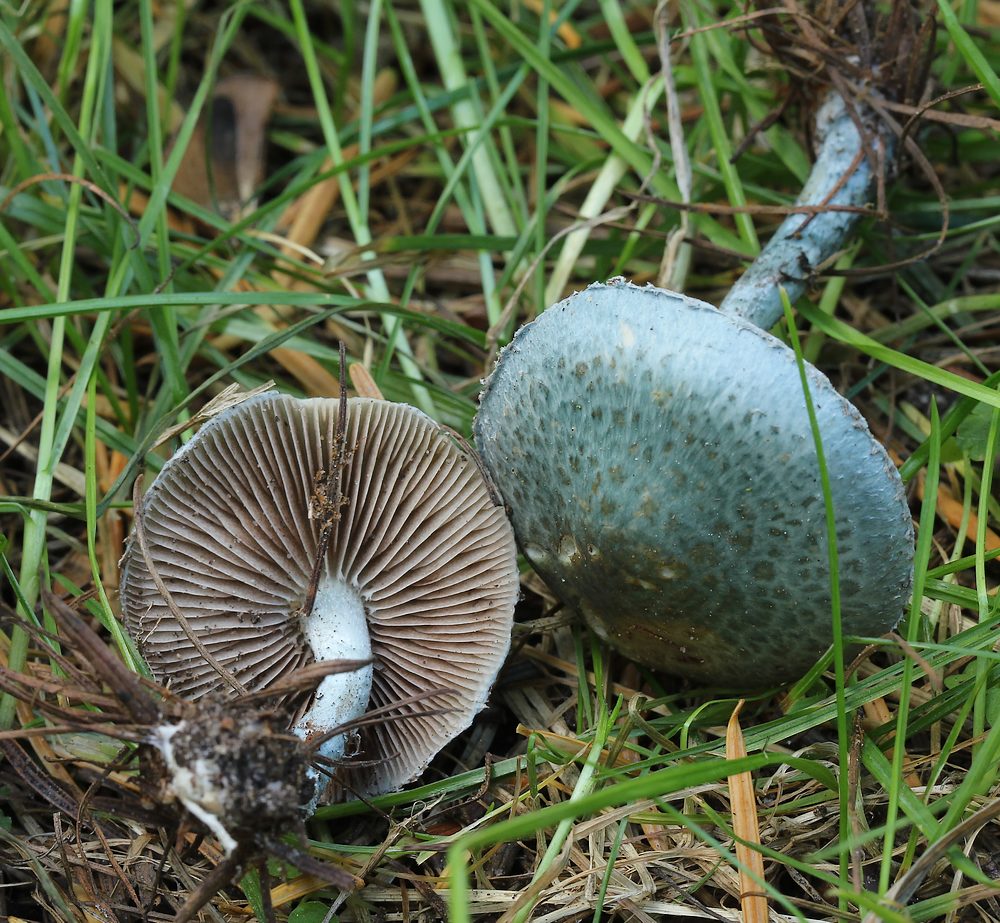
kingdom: Fungi
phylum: Basidiomycota
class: Agaricomycetes
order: Agaricales
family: Strophariaceae
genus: Stropharia
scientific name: Stropharia cyanea
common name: blågrøn bredblad
